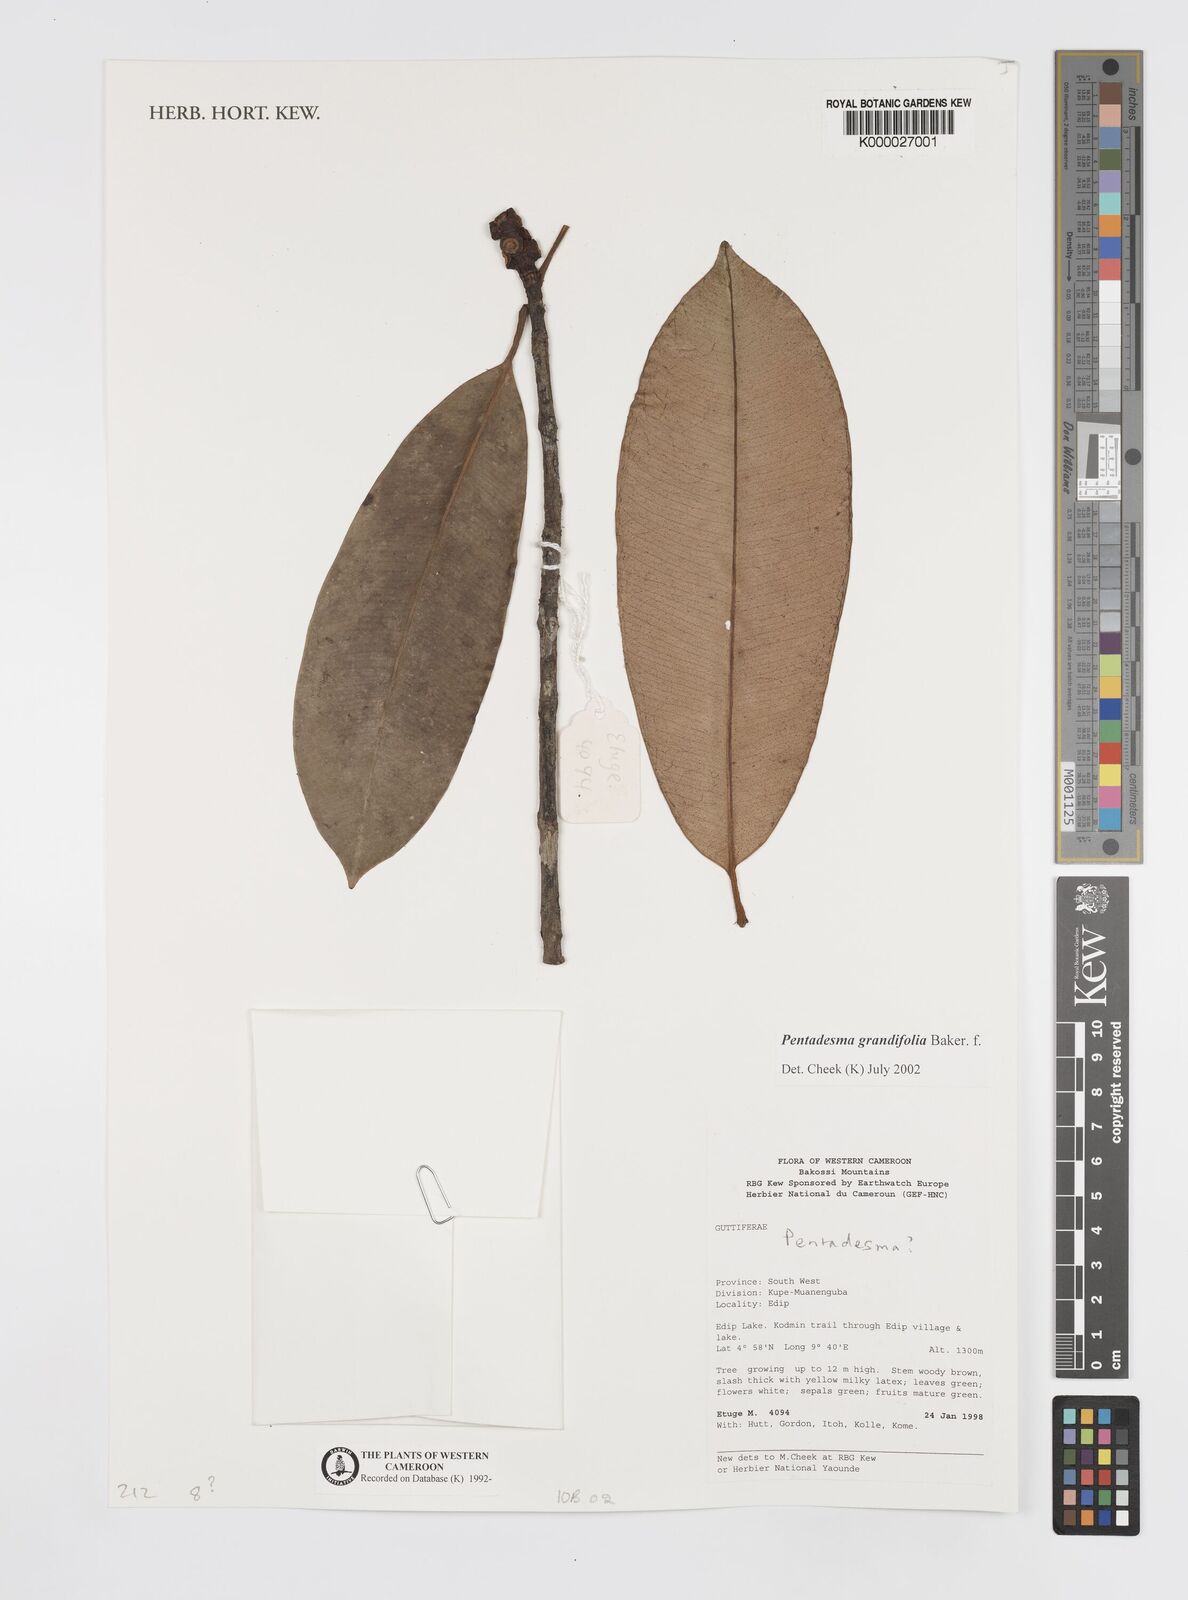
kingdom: Plantae
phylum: Tracheophyta
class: Magnoliopsida
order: Malpighiales
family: Clusiaceae
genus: Pentadesma
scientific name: Pentadesma grandifolia
